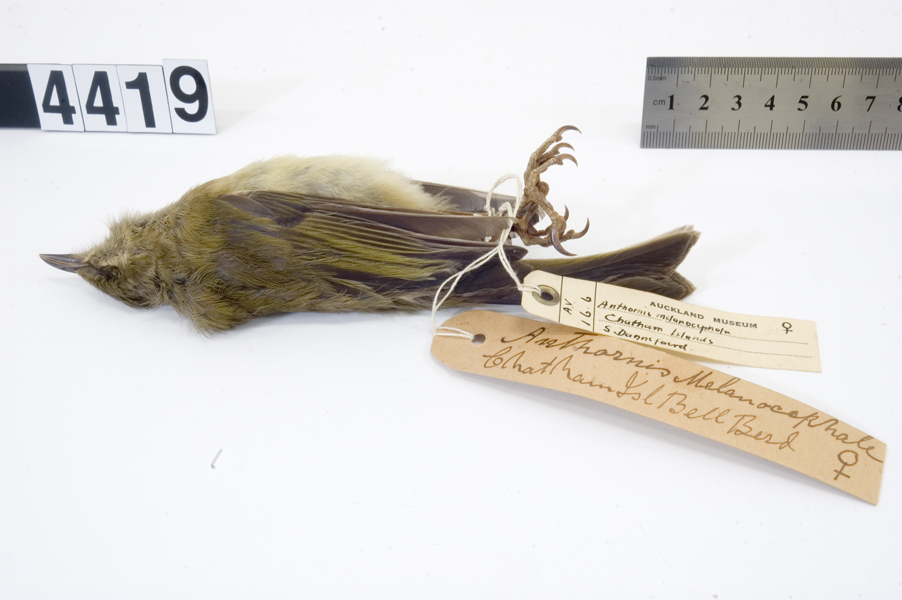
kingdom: Animalia
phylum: Chordata
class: Aves
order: Passeriformes
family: Meliphagidae
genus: Anthornis
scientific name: Anthornis melanocephala
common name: Chatham bellbird
